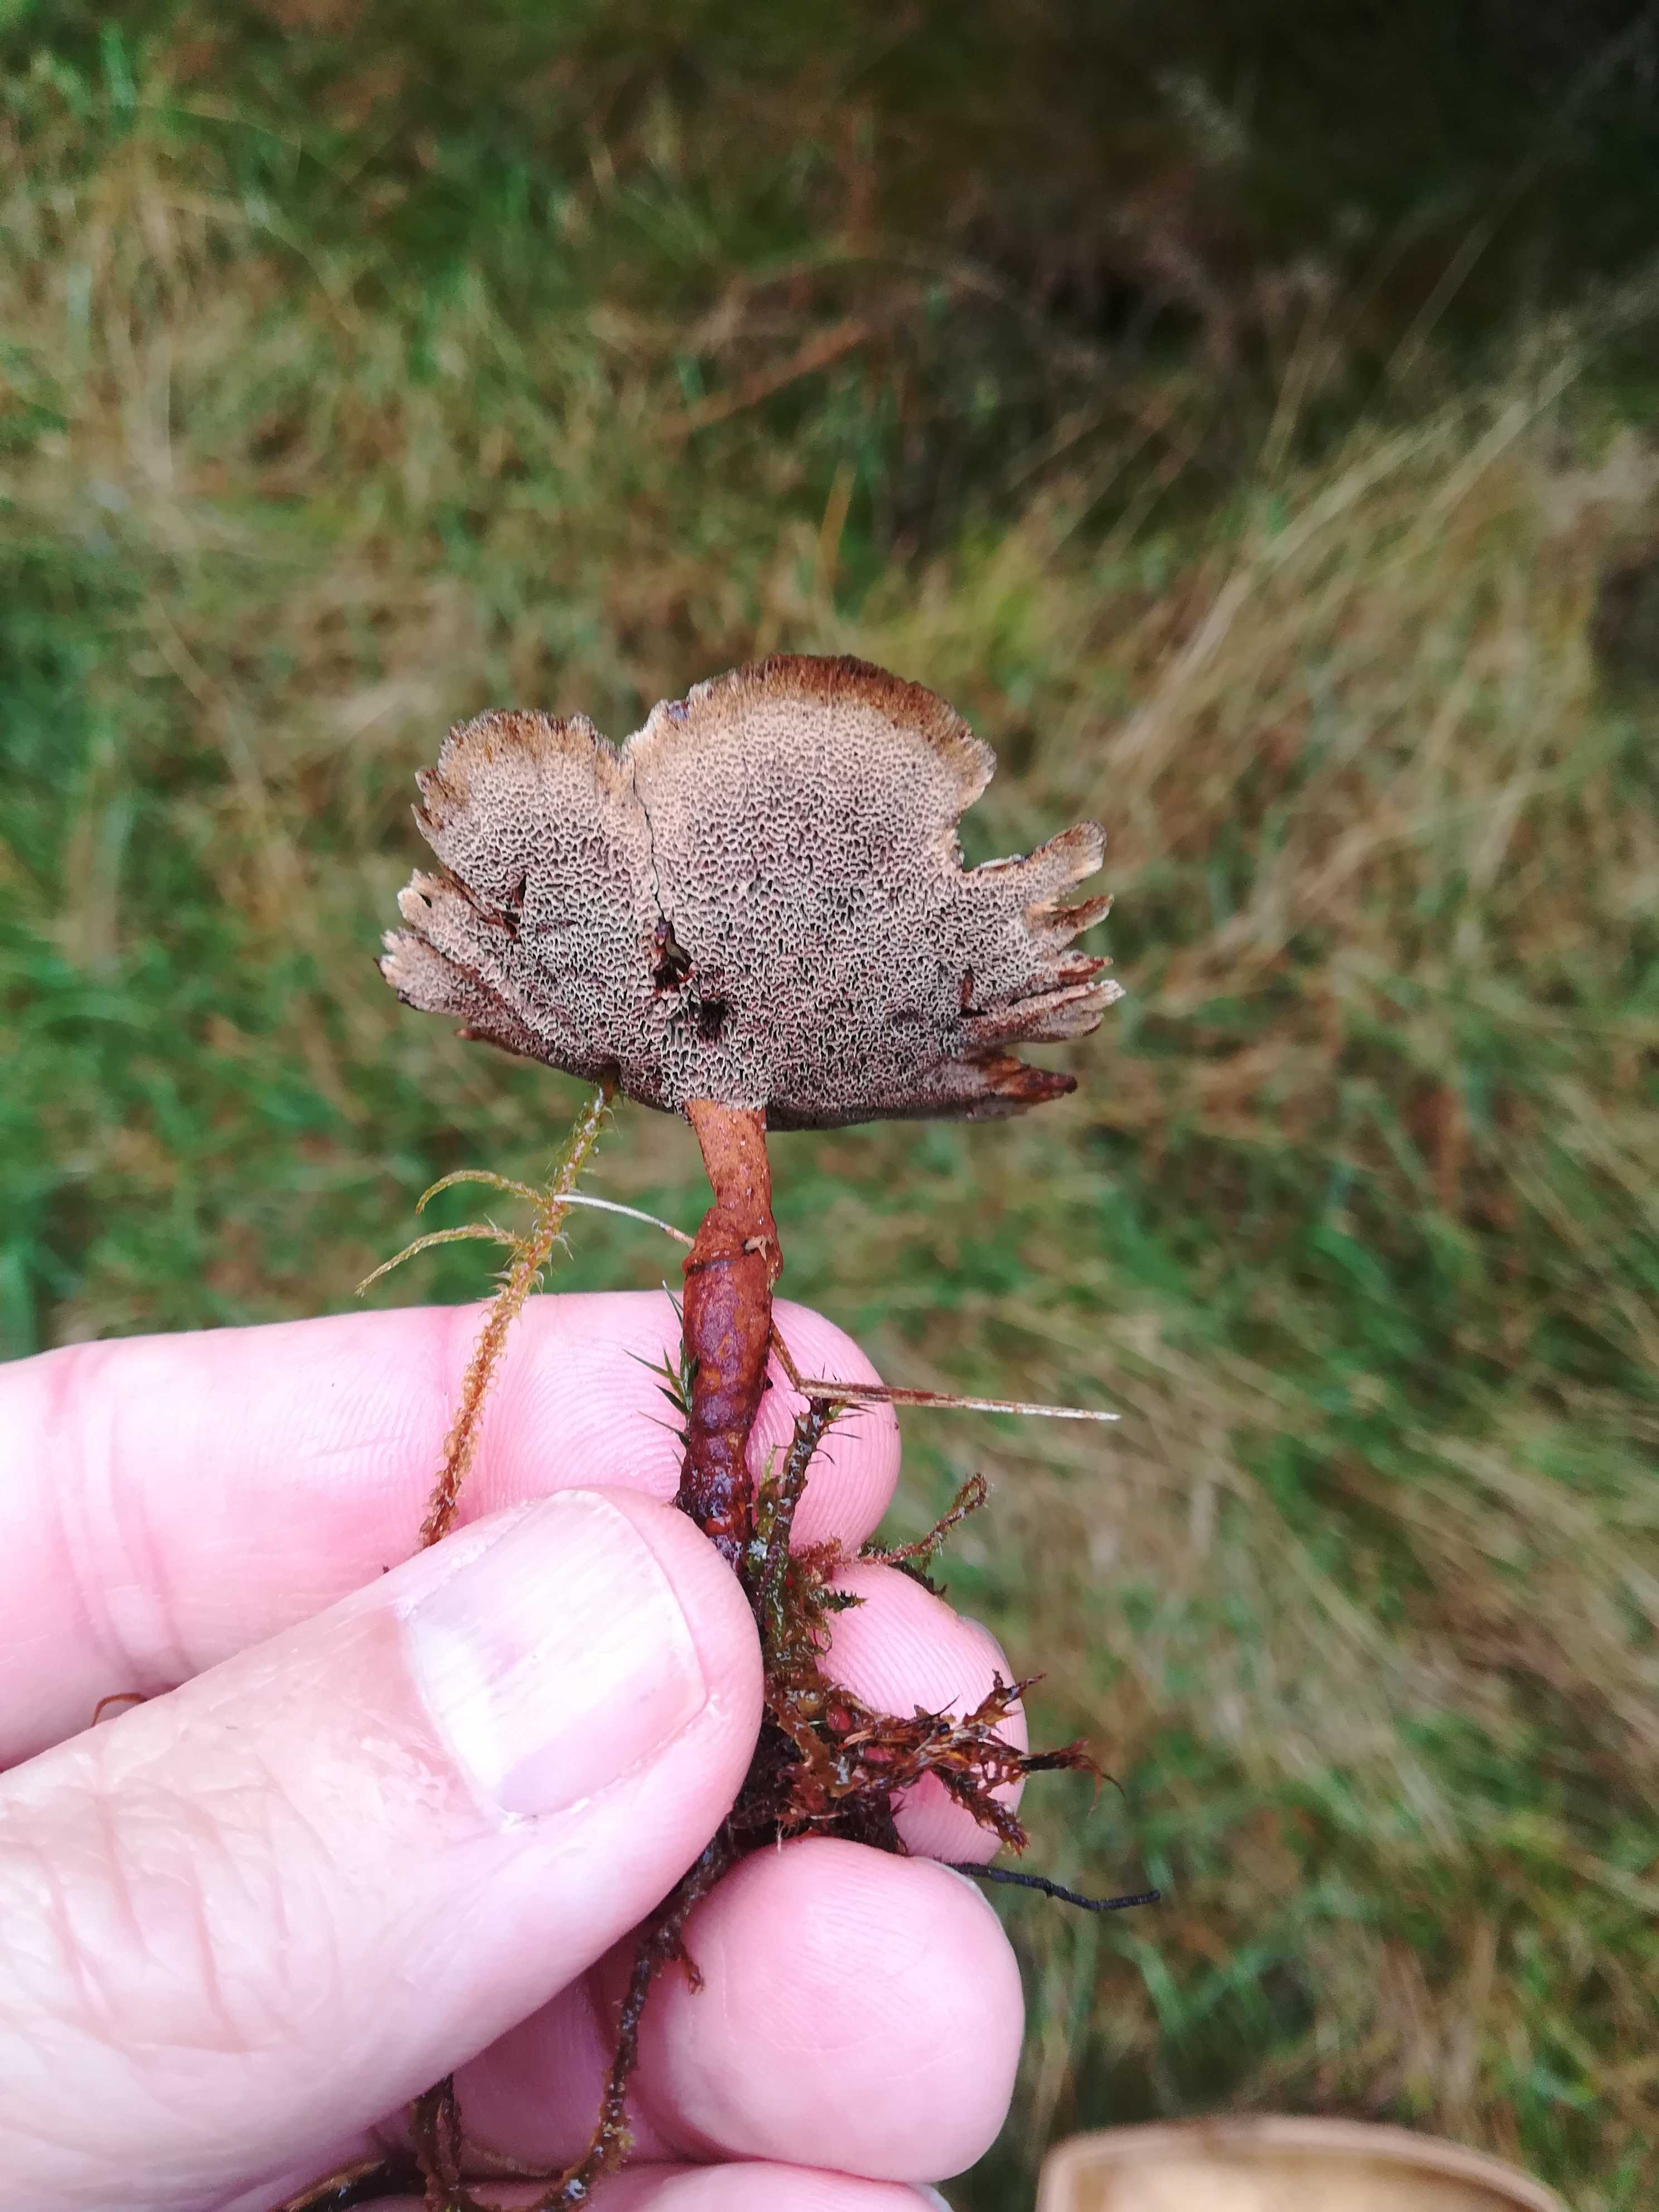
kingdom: Fungi
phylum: Basidiomycota
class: Agaricomycetes
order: Hymenochaetales
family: Hymenochaetaceae
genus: Coltricia
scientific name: Coltricia perennis
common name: almindelig sandporesvamp
